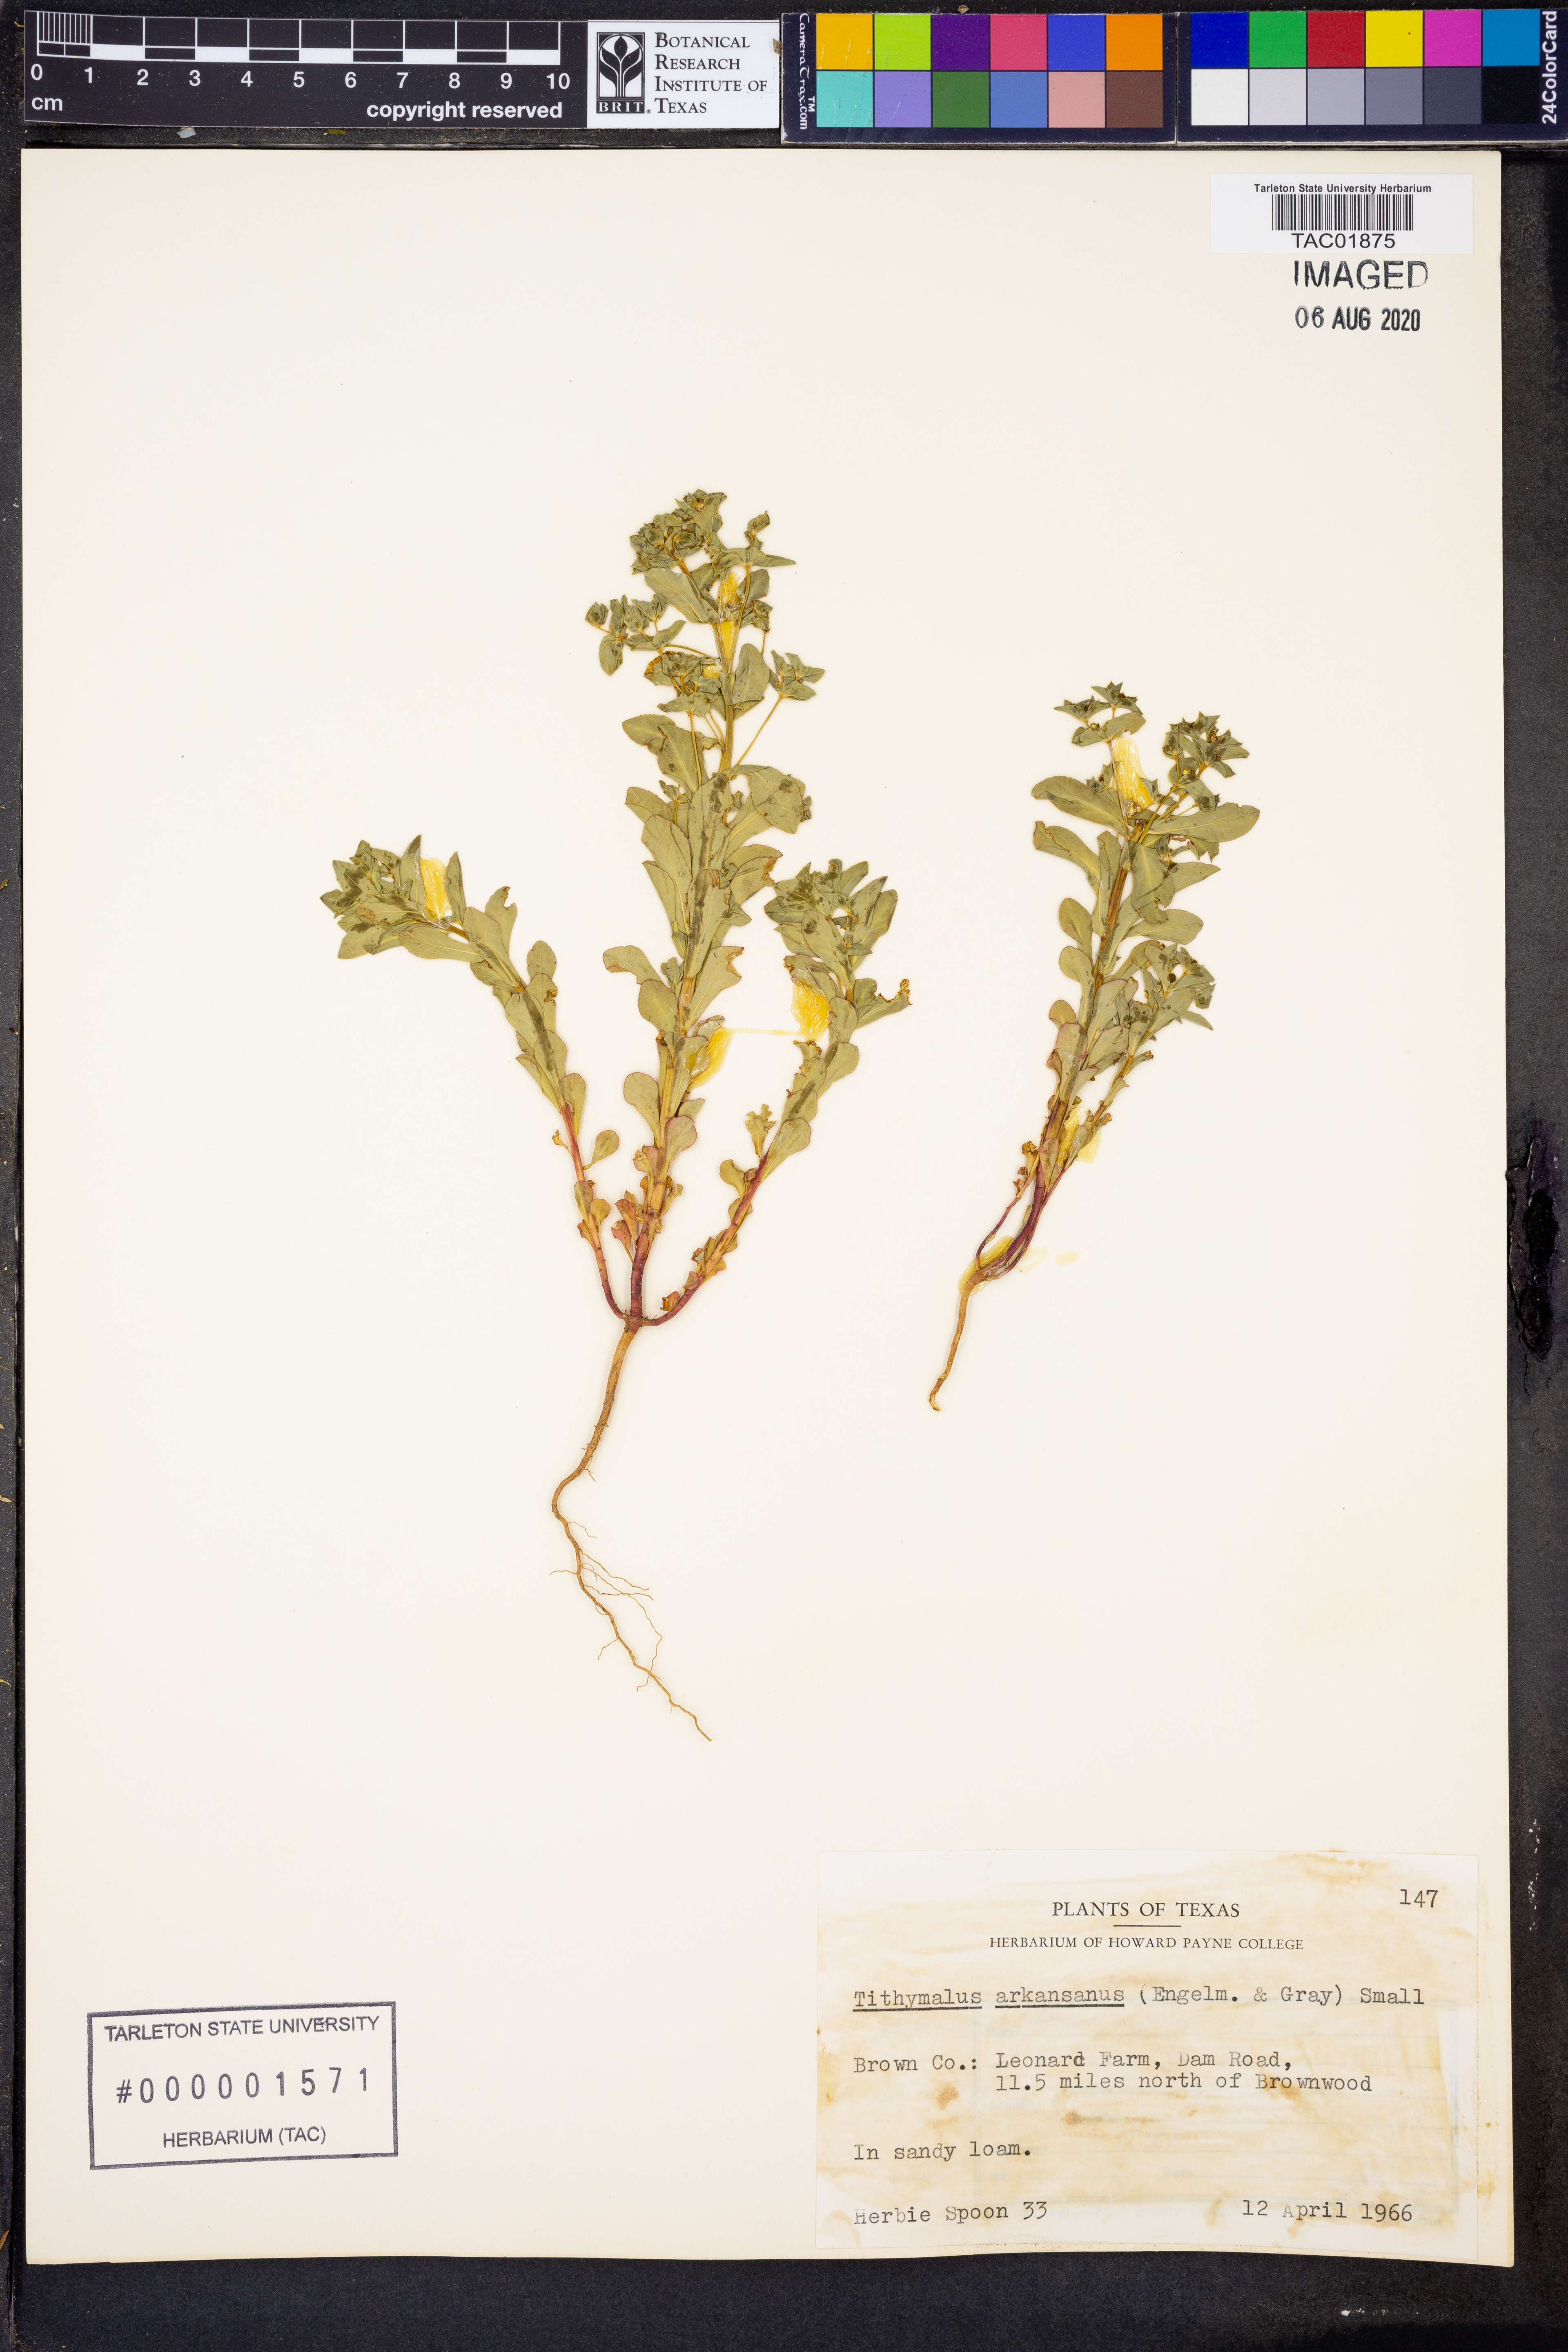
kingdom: Plantae
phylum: Tracheophyta
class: Magnoliopsida
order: Malpighiales
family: Euphorbiaceae
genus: Euphorbia
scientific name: Euphorbia spathulata
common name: Blunt spurge
